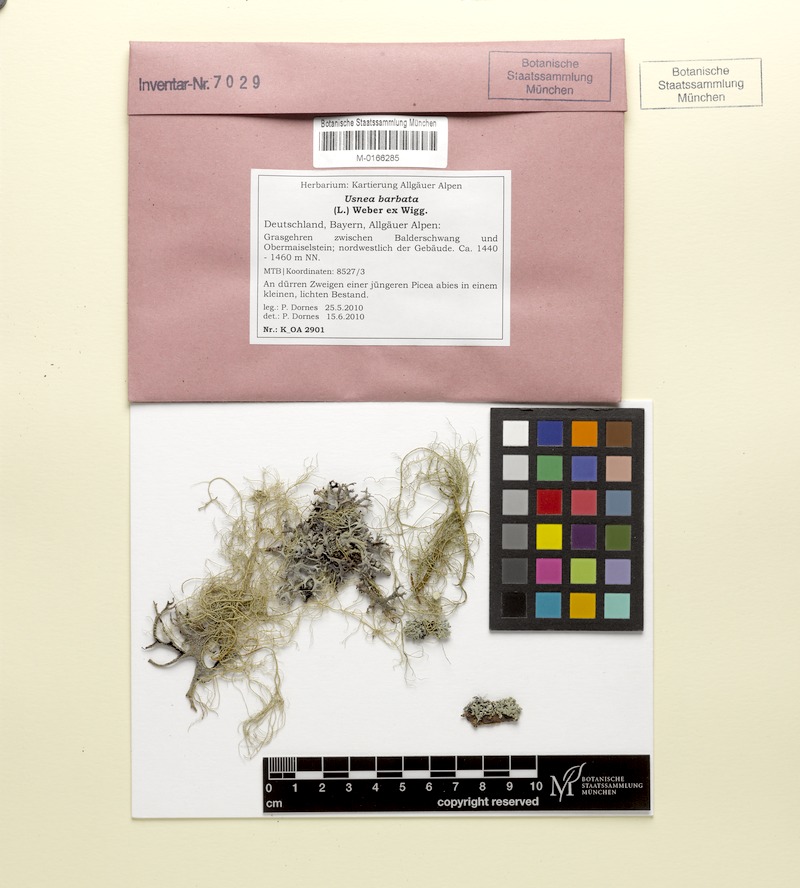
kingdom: Fungi
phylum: Ascomycota
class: Lecanoromycetes
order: Lecanorales
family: Parmeliaceae
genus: Usnea
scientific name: Usnea barbata
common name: Old man's beard lichen
